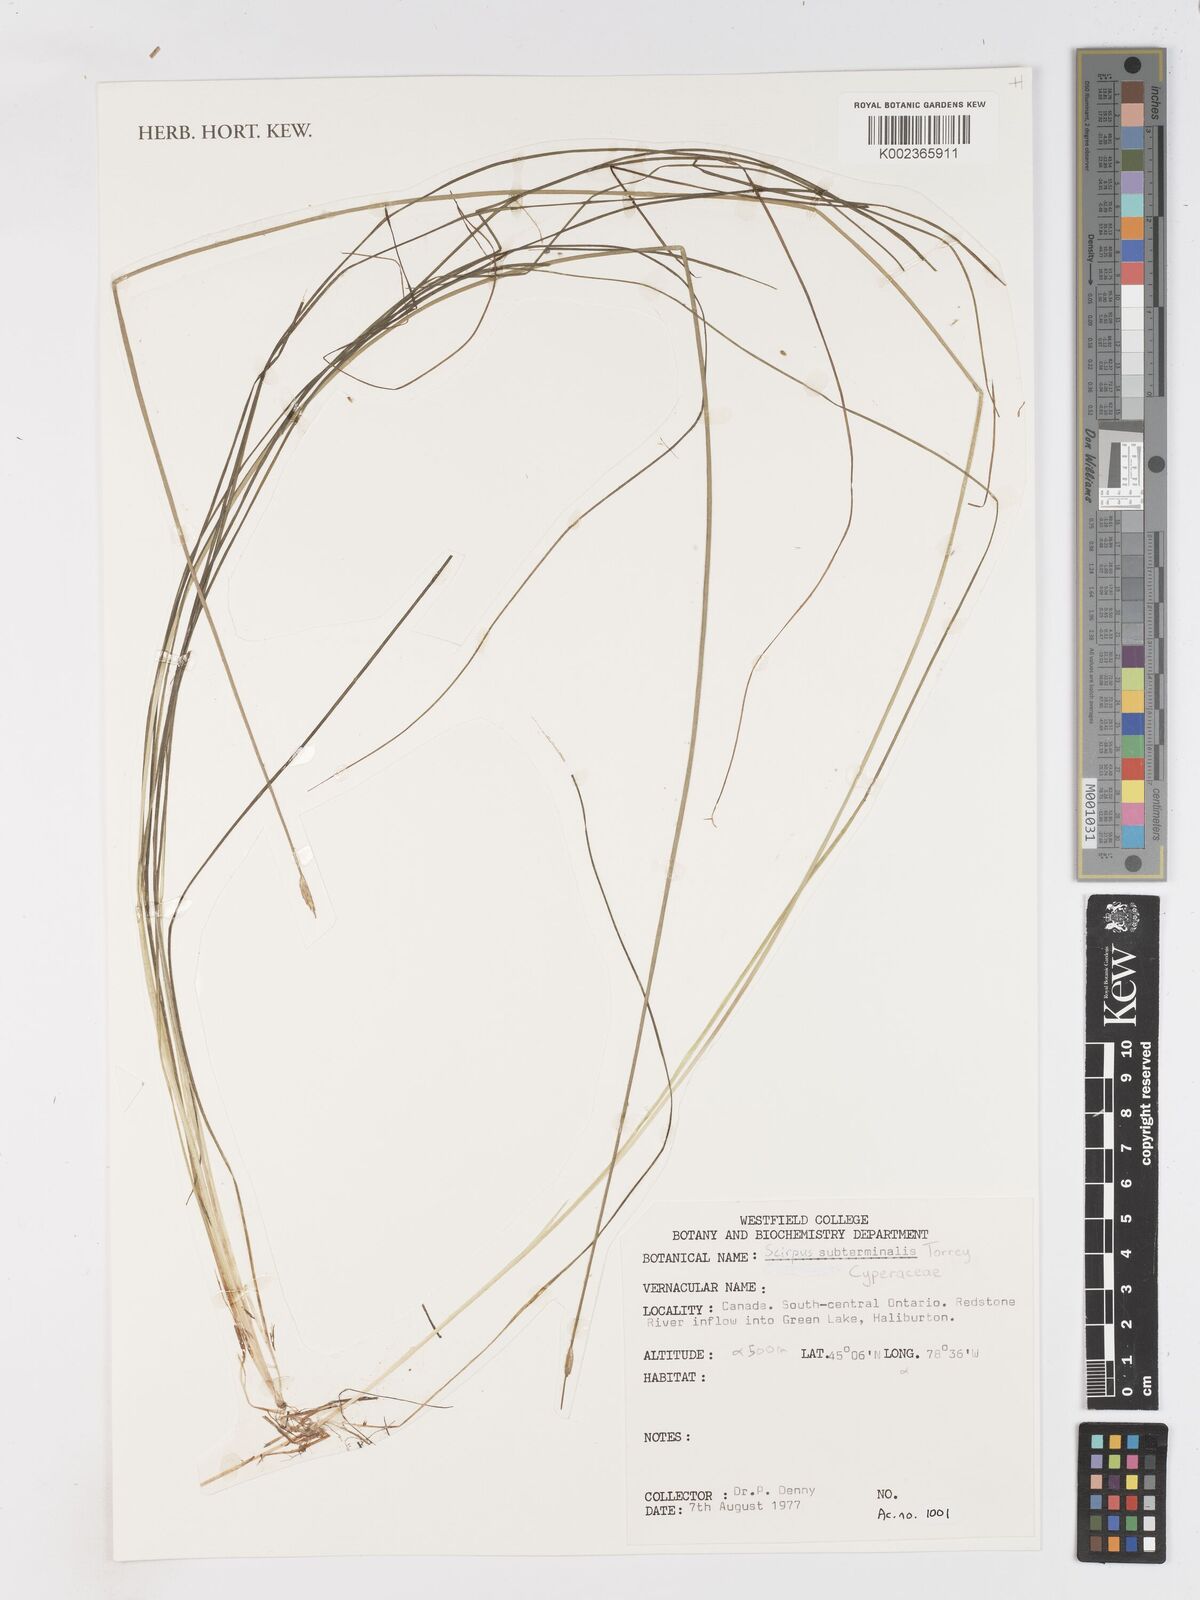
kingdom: Plantae
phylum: Tracheophyta
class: Liliopsida
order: Poales
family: Cyperaceae
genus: Schoenoplectus
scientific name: Schoenoplectus subterminalis
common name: Swaying bulrush
